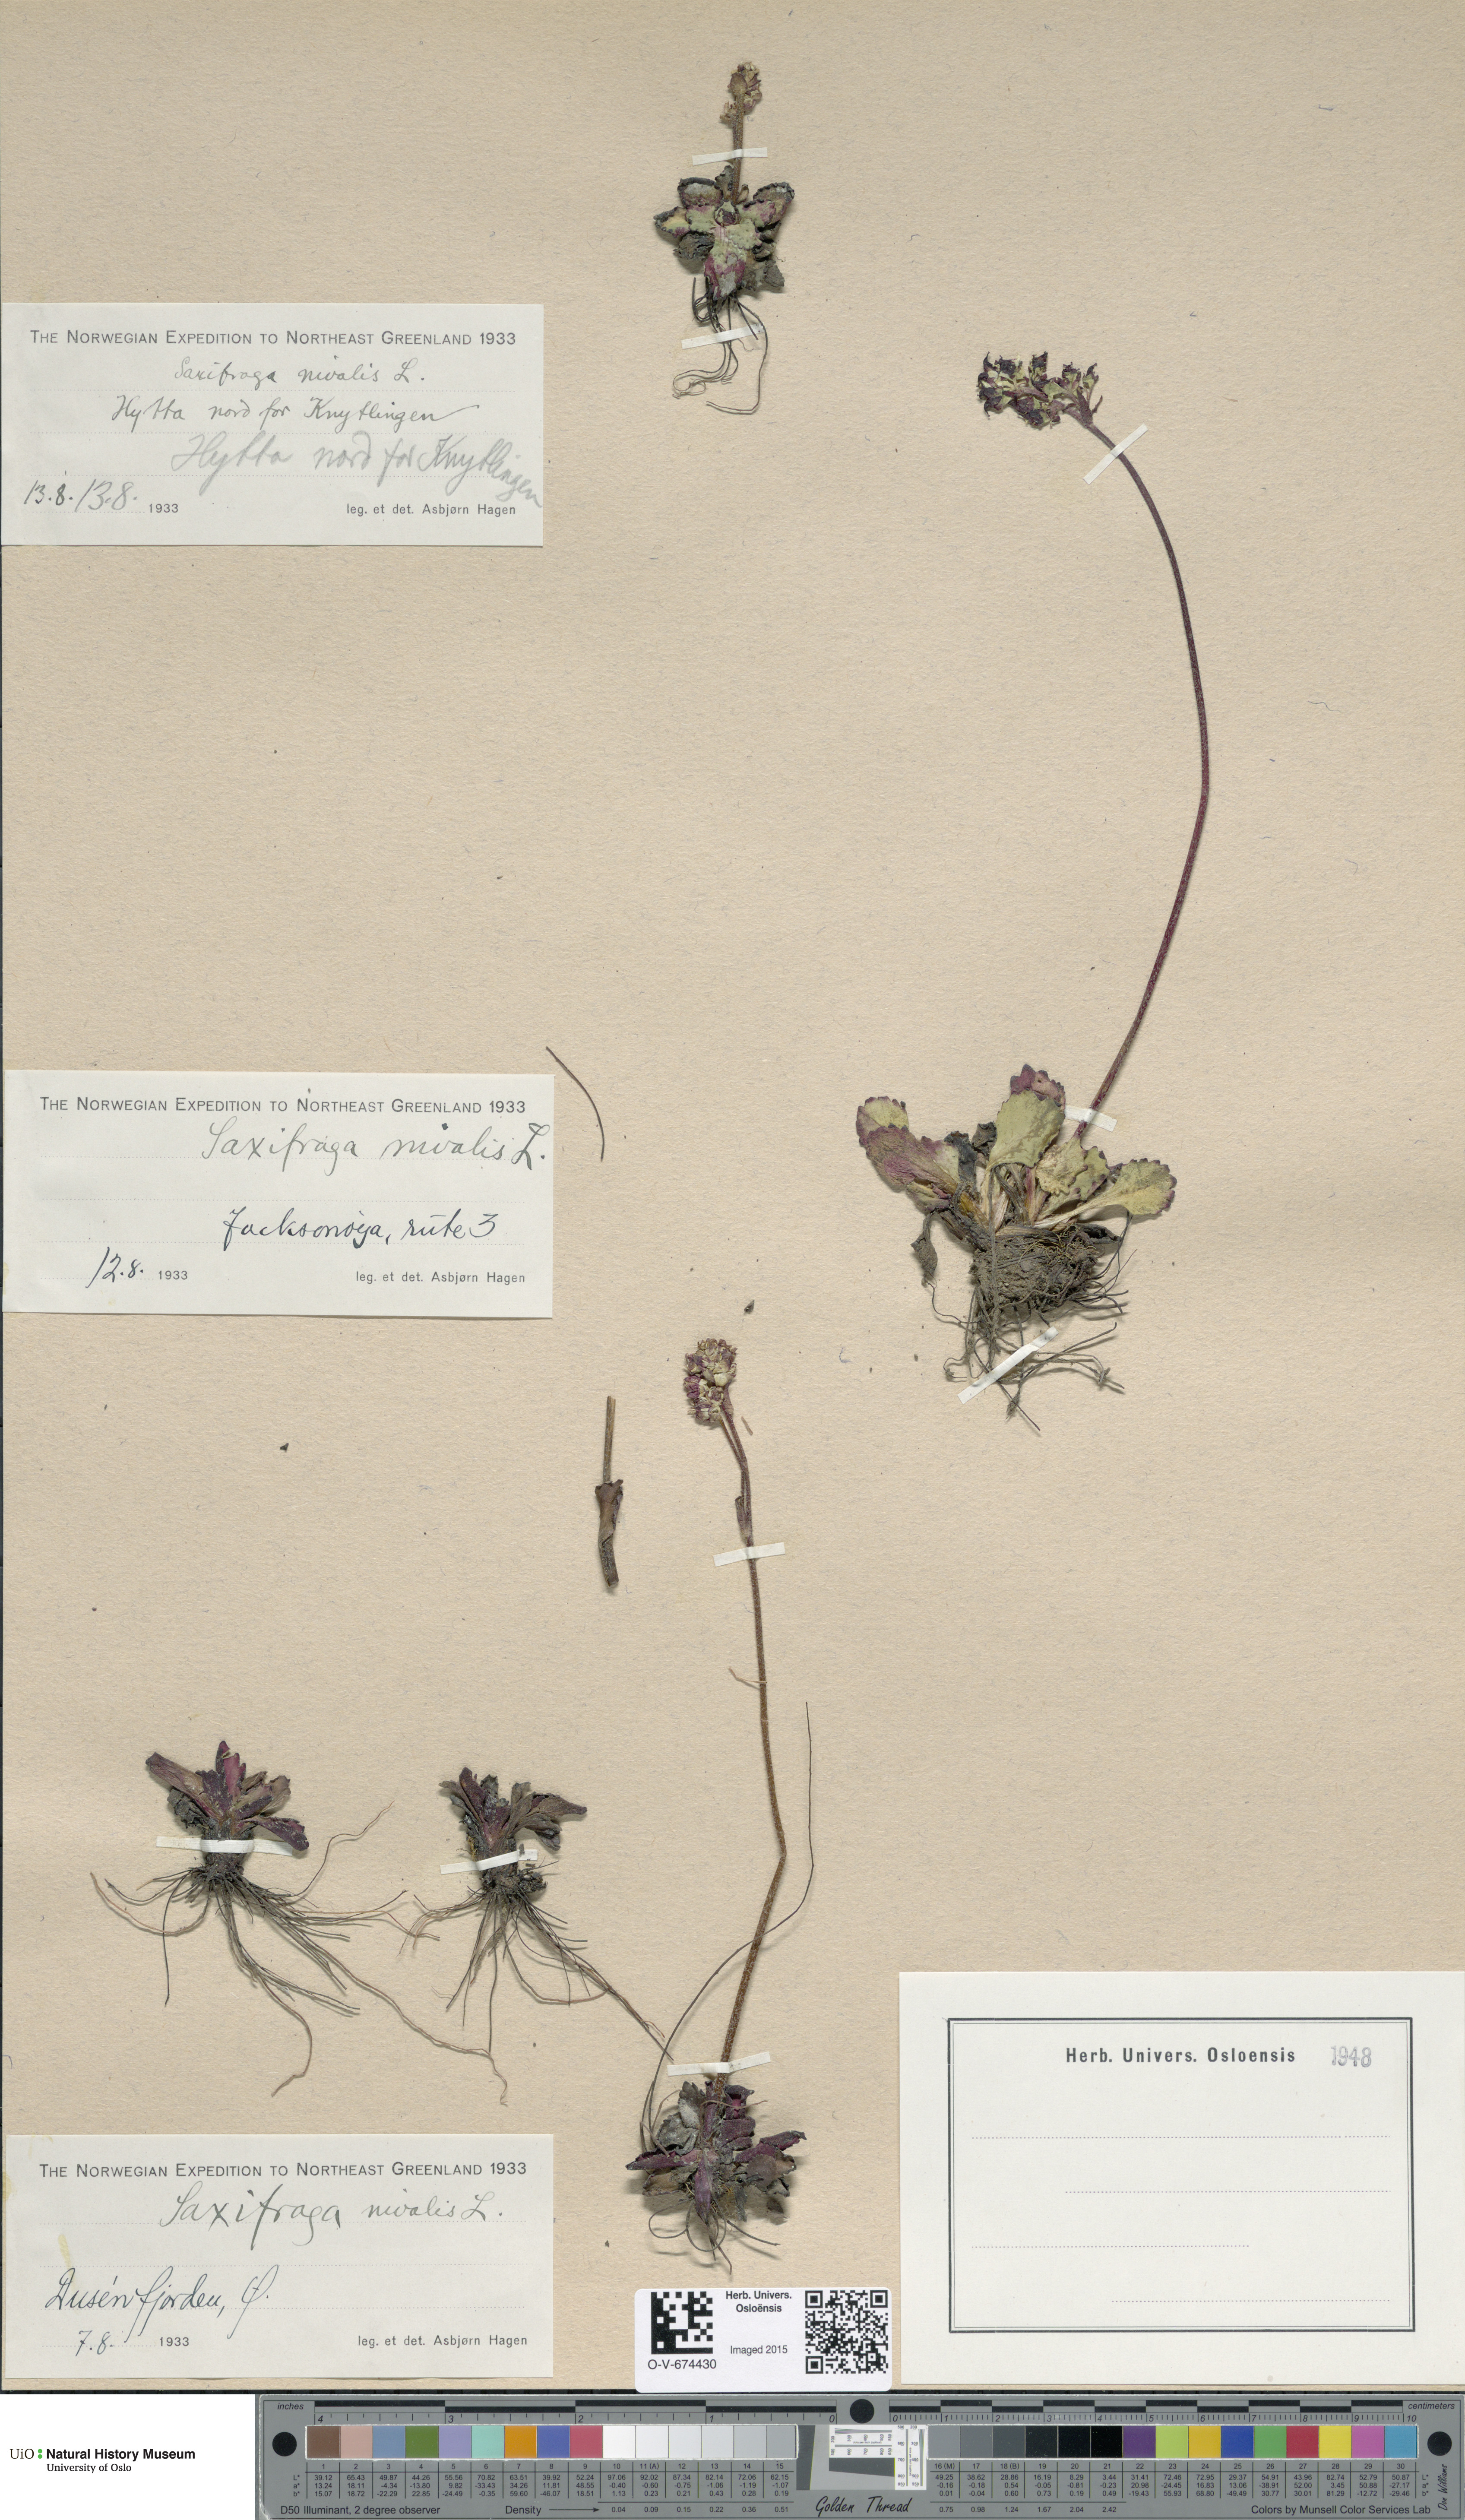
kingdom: Plantae
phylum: Tracheophyta
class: Magnoliopsida
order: Saxifragales
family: Saxifragaceae
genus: Micranthes
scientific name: Micranthes nivalis
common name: Alpine saxifrage
